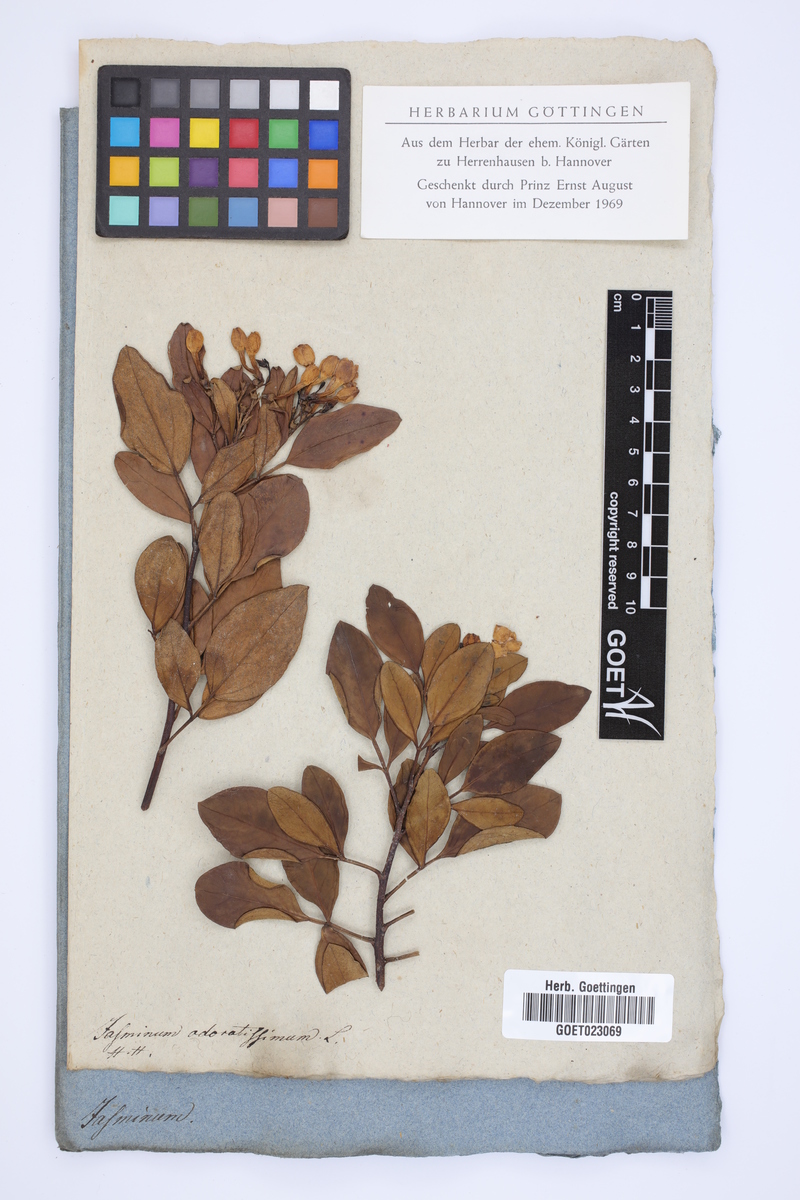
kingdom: Plantae
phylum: Tracheophyta
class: Magnoliopsida
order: Lamiales
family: Oleaceae
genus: Chrysojasminum
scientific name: Chrysojasminum odoratissimum
